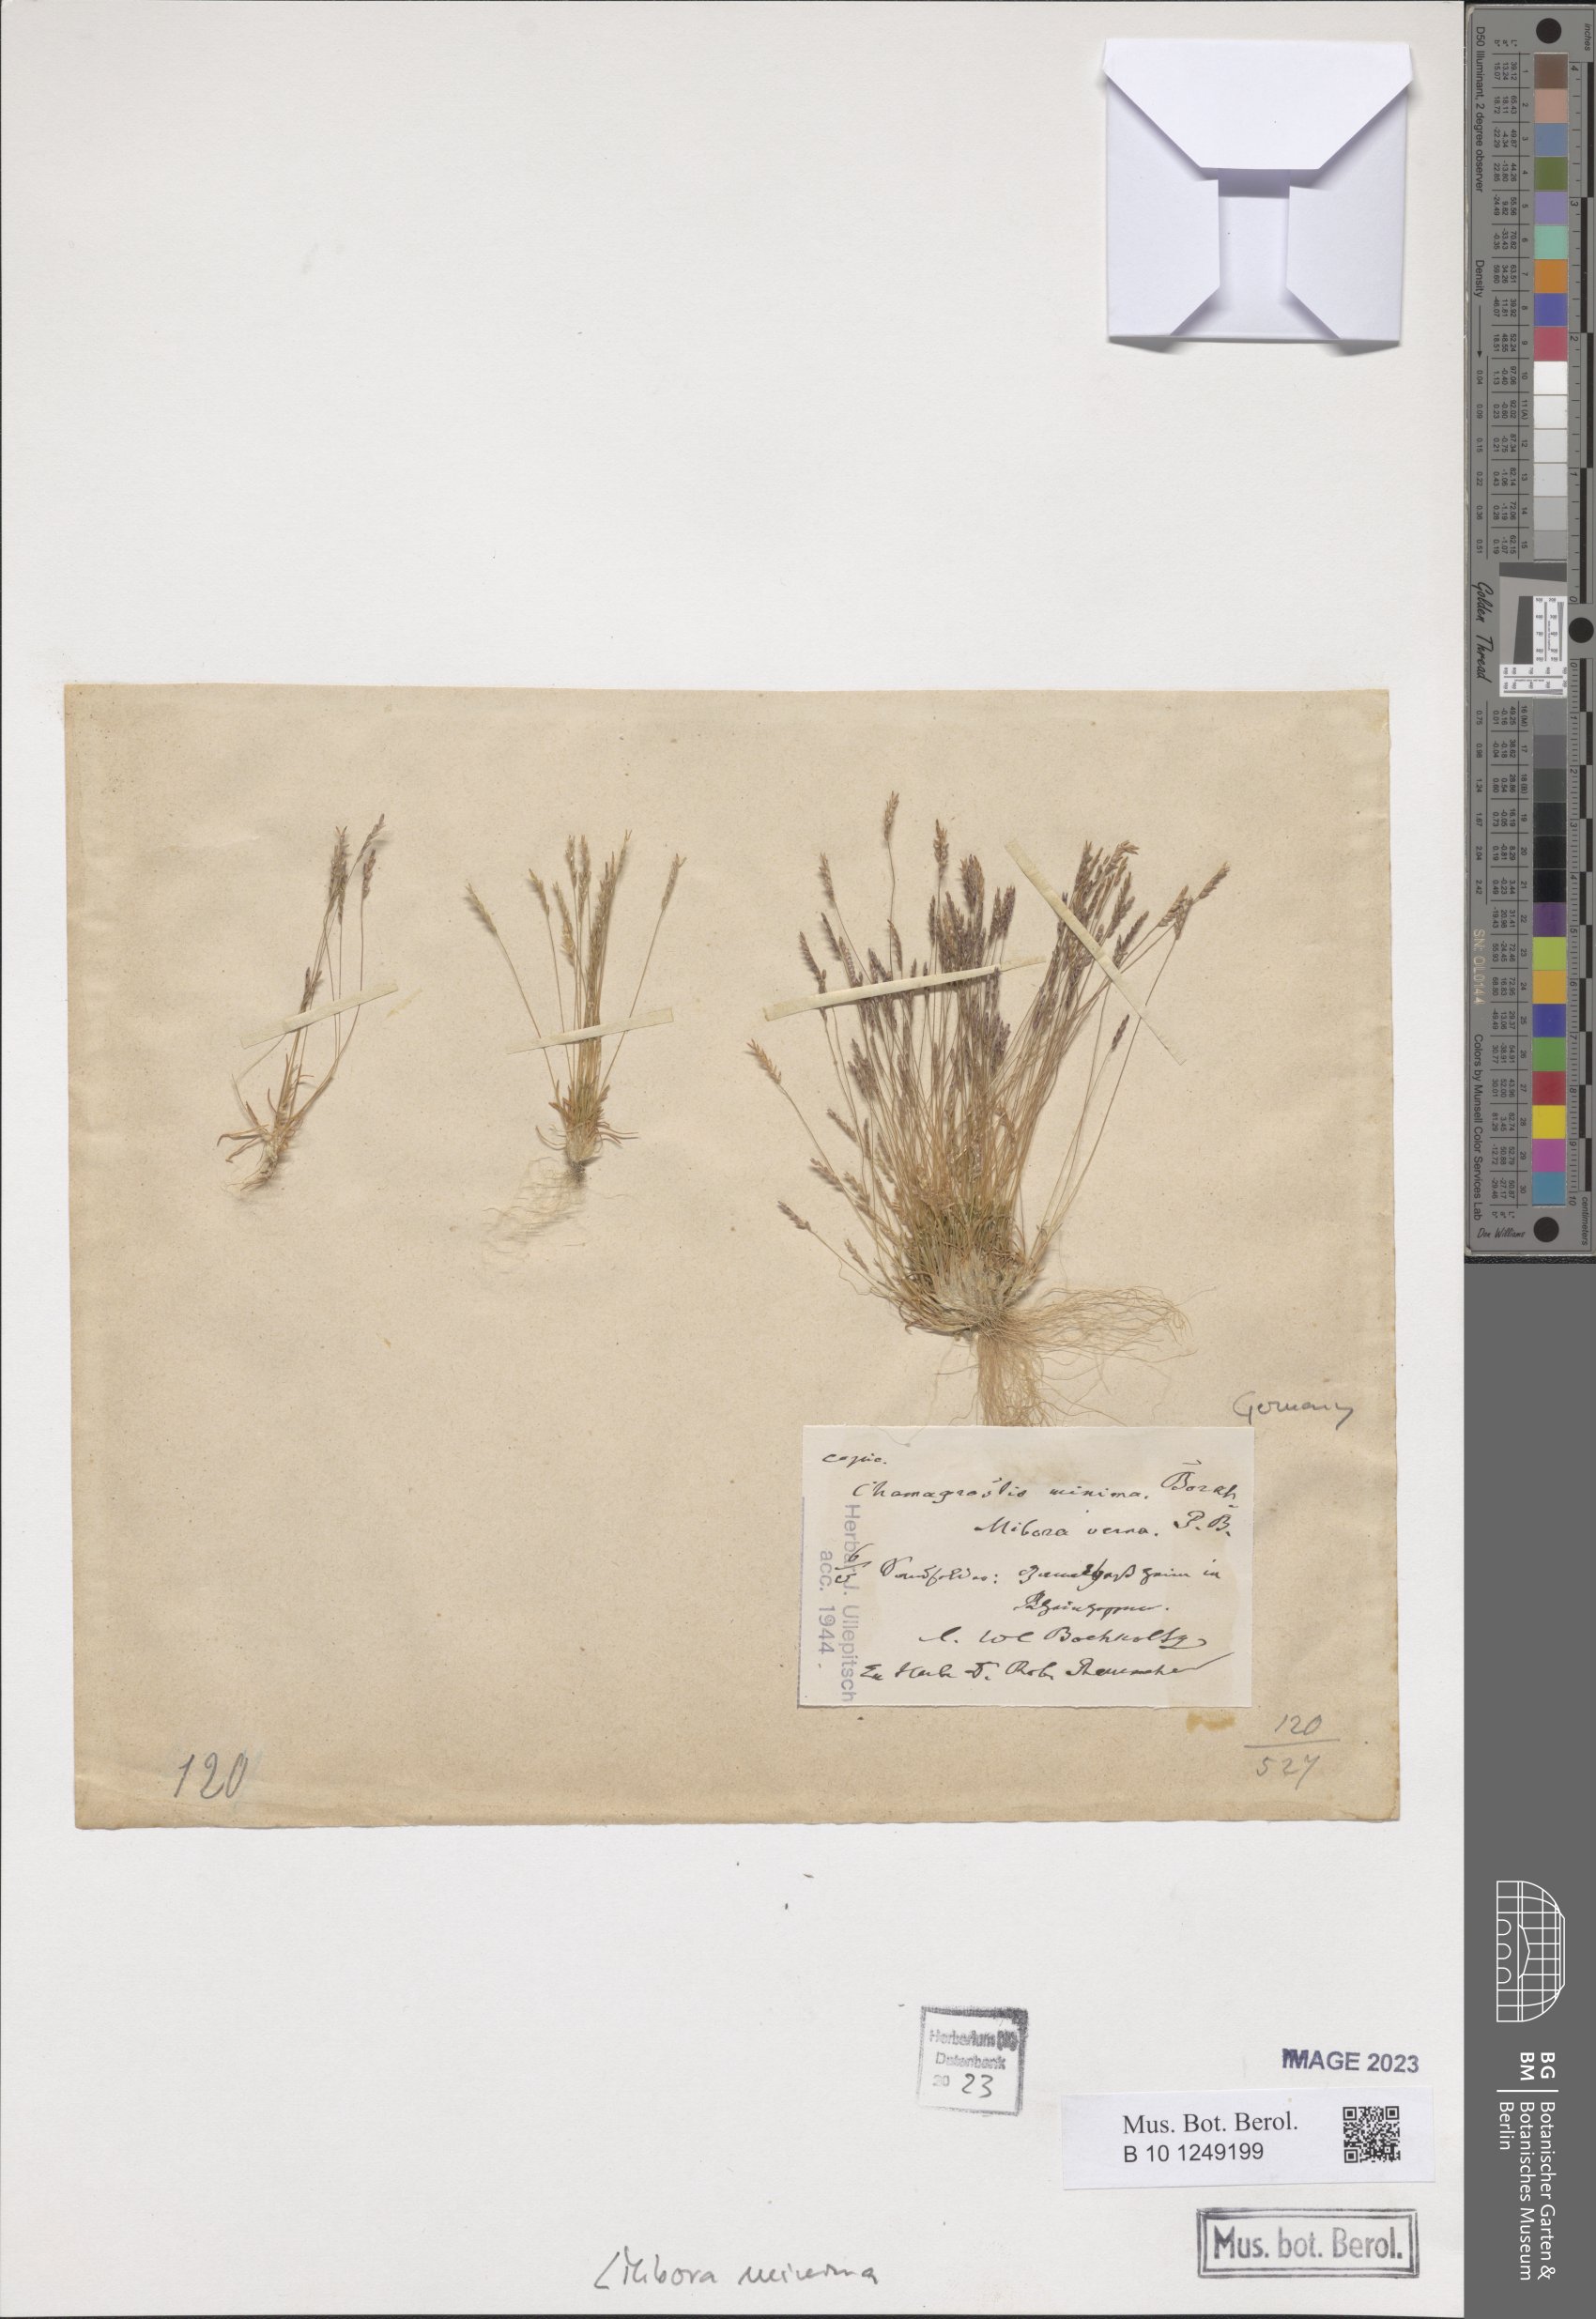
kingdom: Plantae
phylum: Tracheophyta
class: Liliopsida
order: Poales
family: Poaceae
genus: Mibora
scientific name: Mibora minima
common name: Early sand-grass
